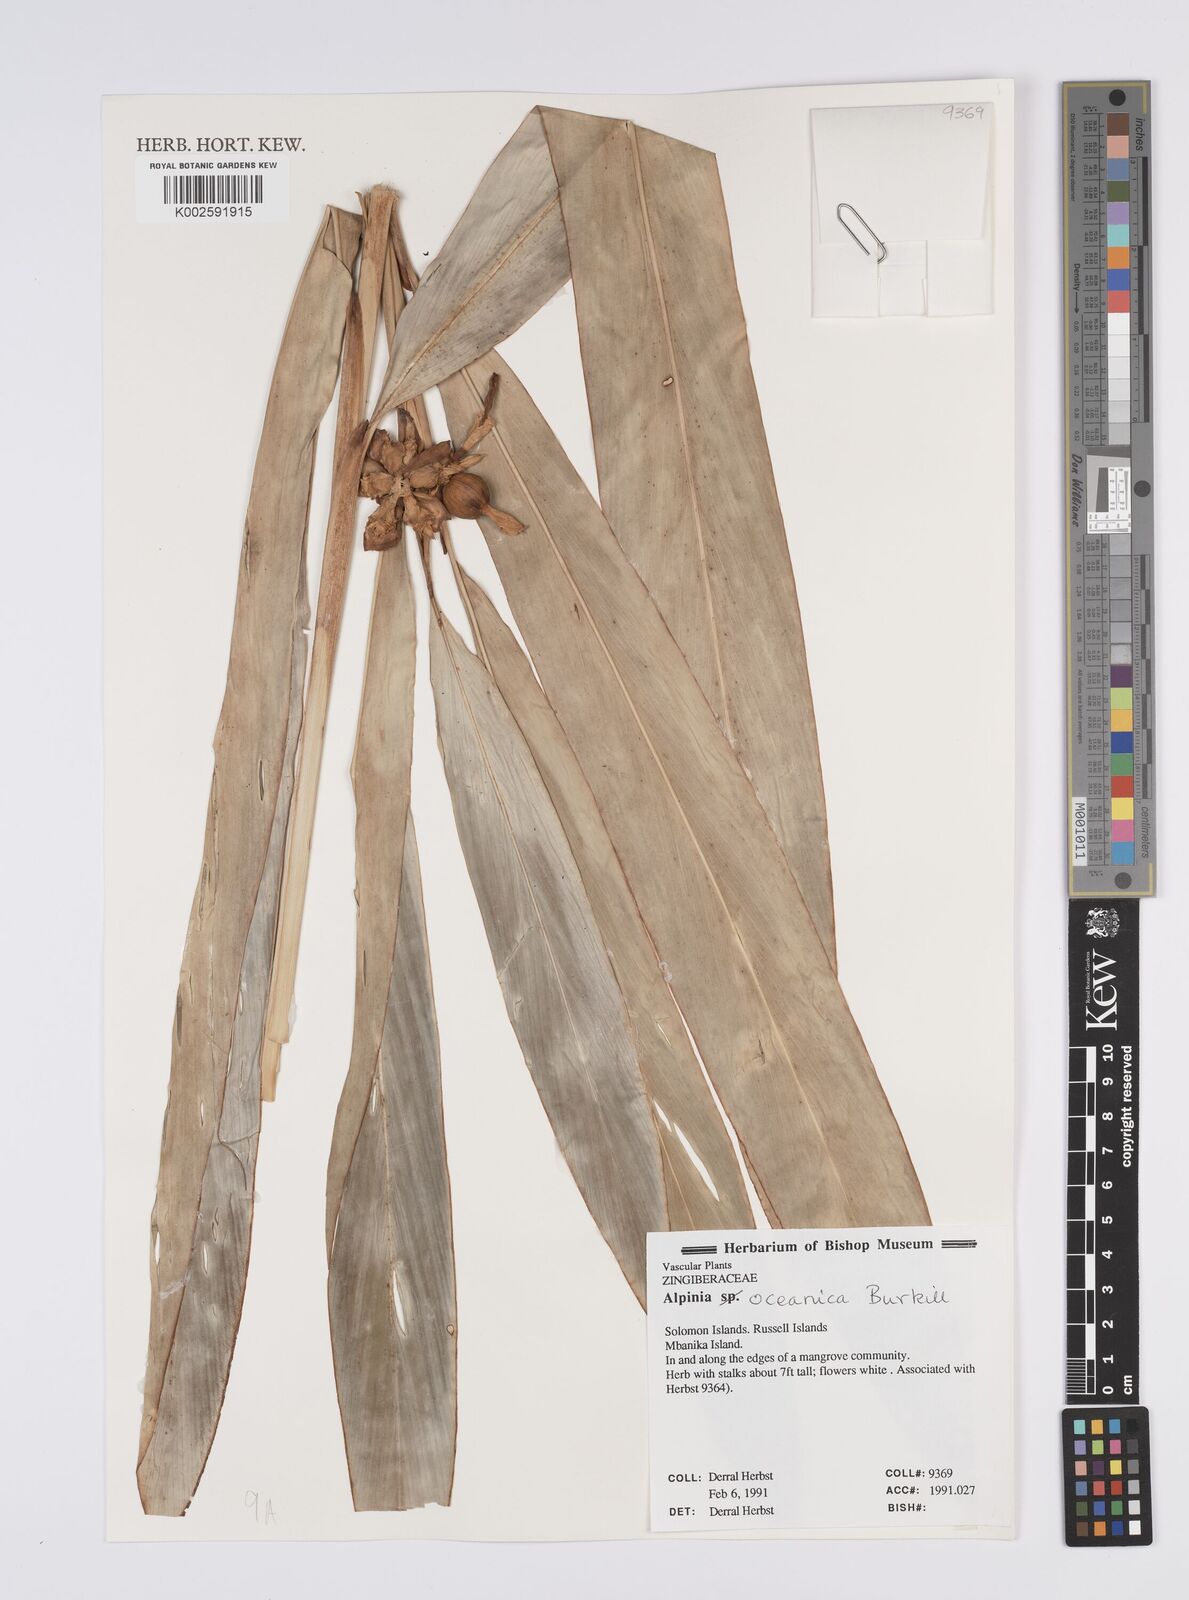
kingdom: Plantae
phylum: Tracheophyta
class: Liliopsida
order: Zingiberales
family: Zingiberaceae
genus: Alpinia
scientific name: Alpinia oceanica
